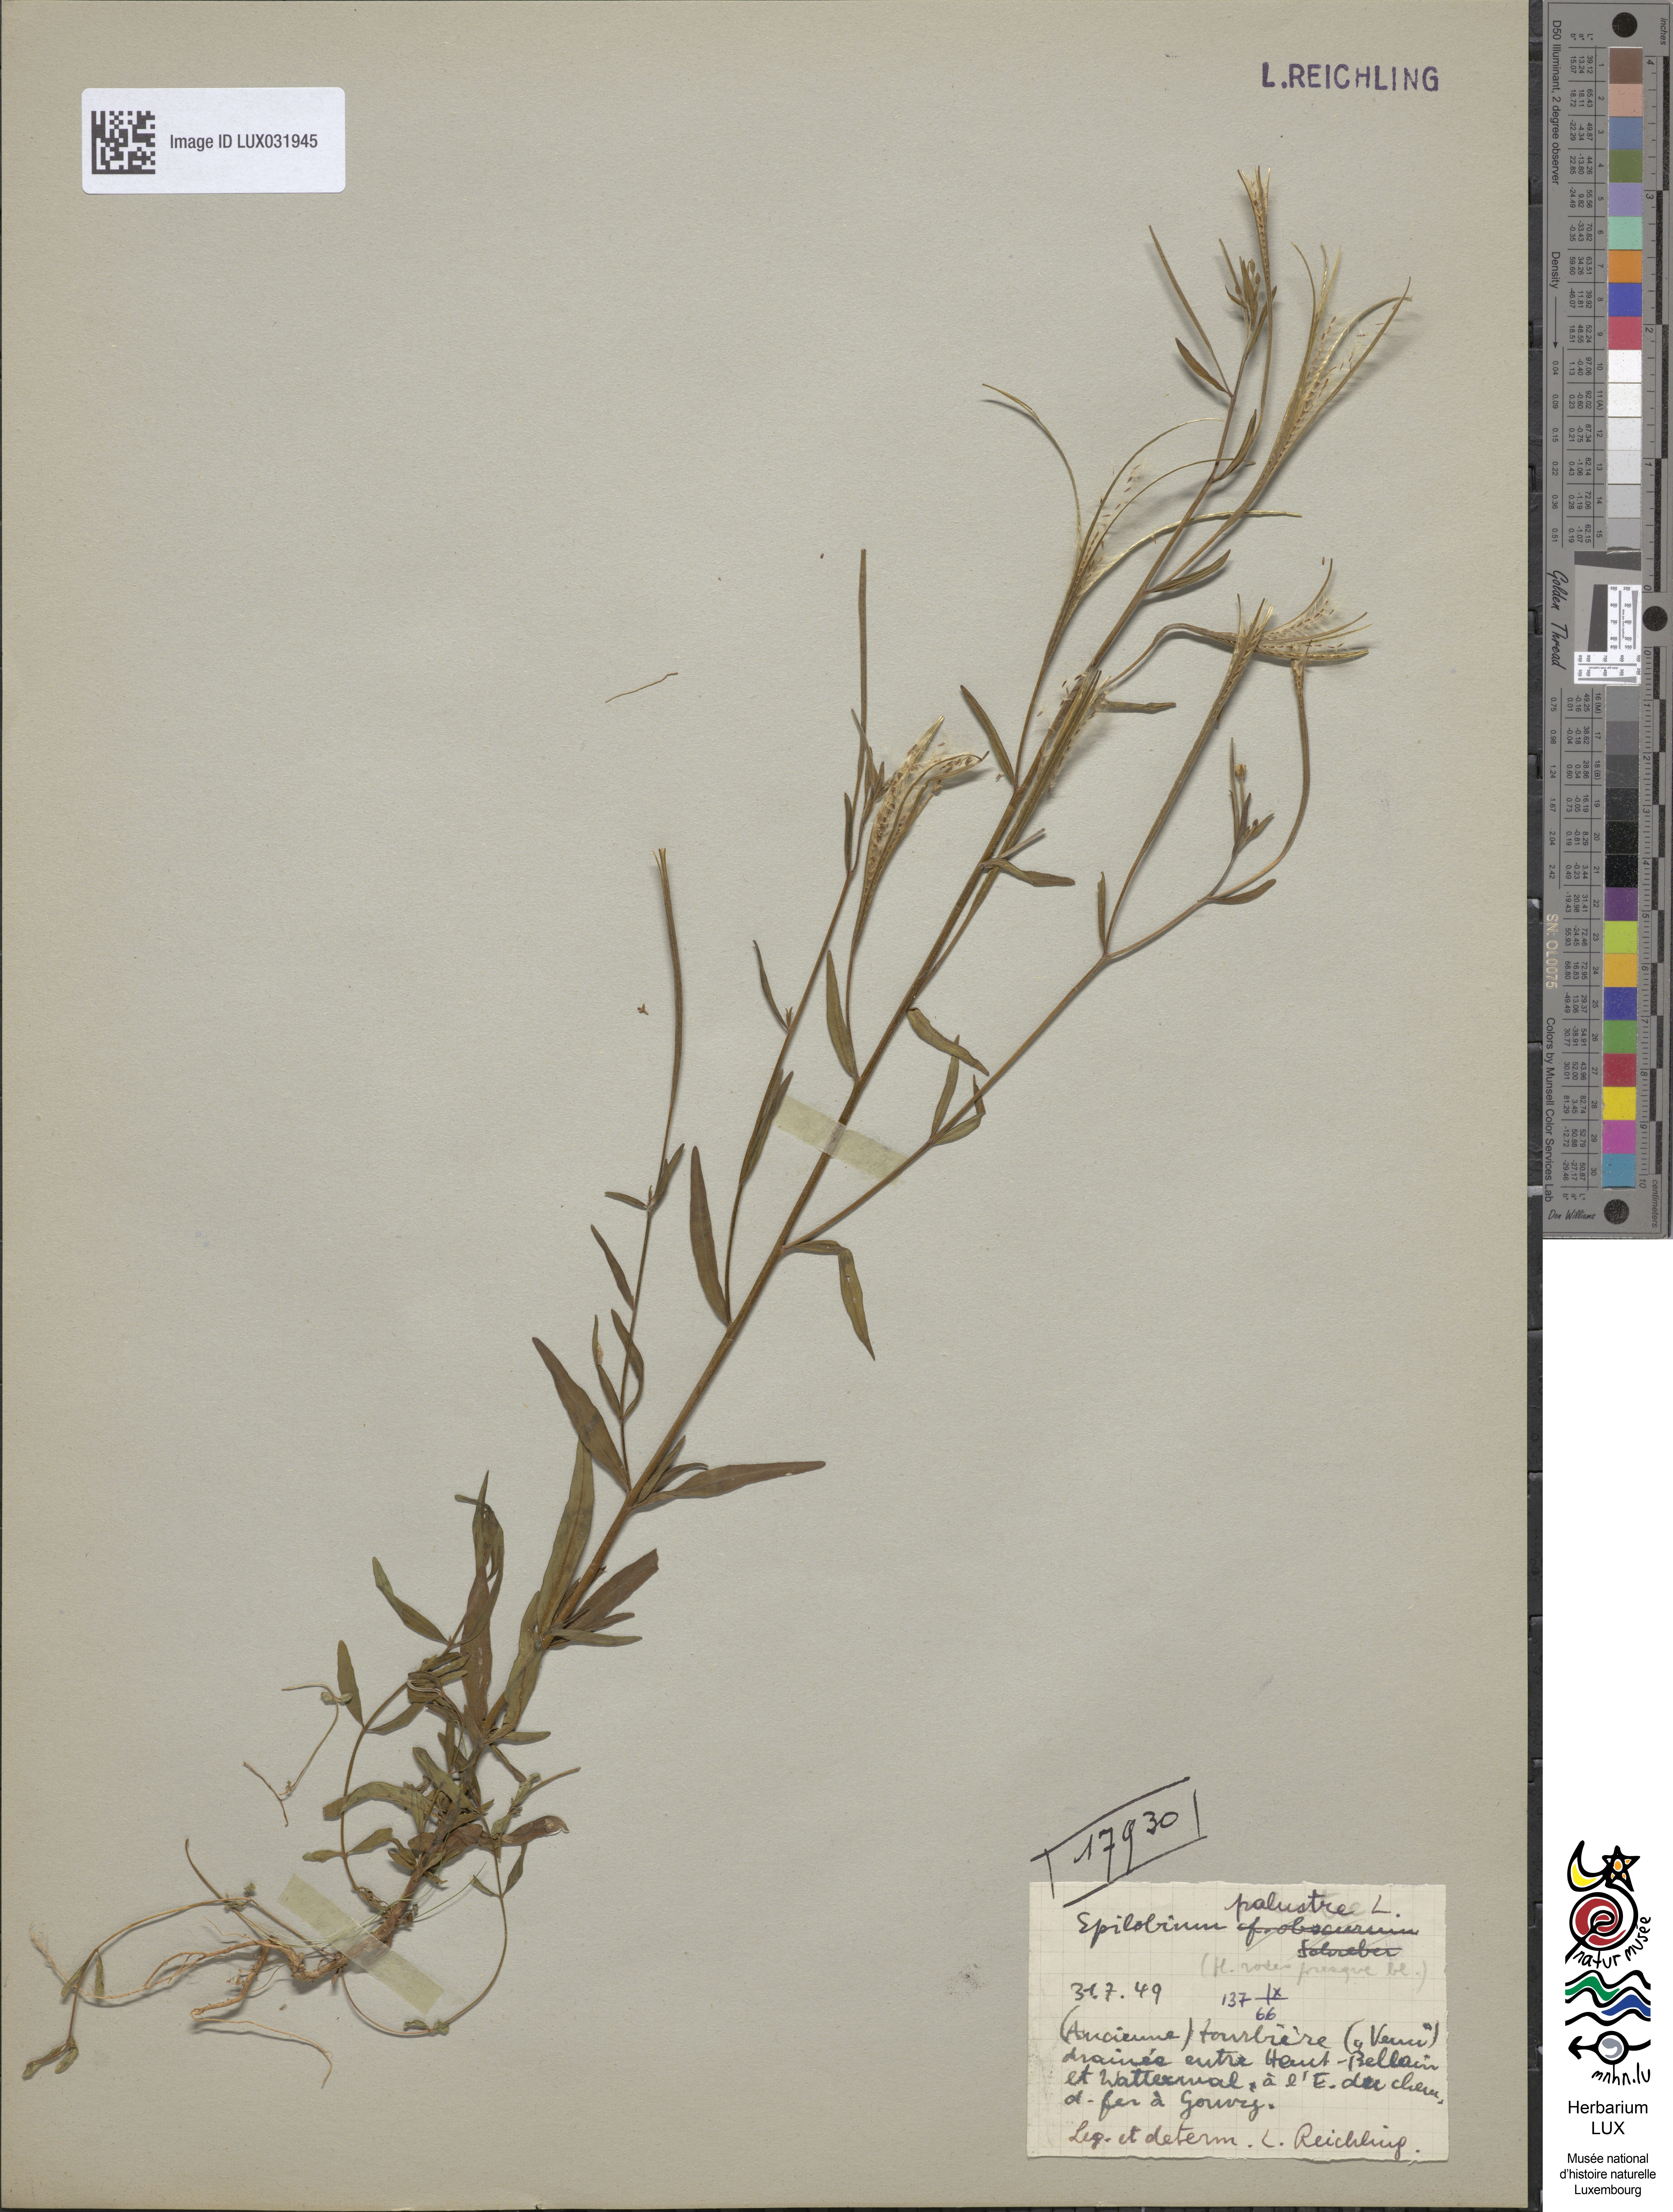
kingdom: Plantae
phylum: Tracheophyta
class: Magnoliopsida
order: Myrtales
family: Onagraceae
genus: Epilobium
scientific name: Epilobium palustre
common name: Marsh willowherb
